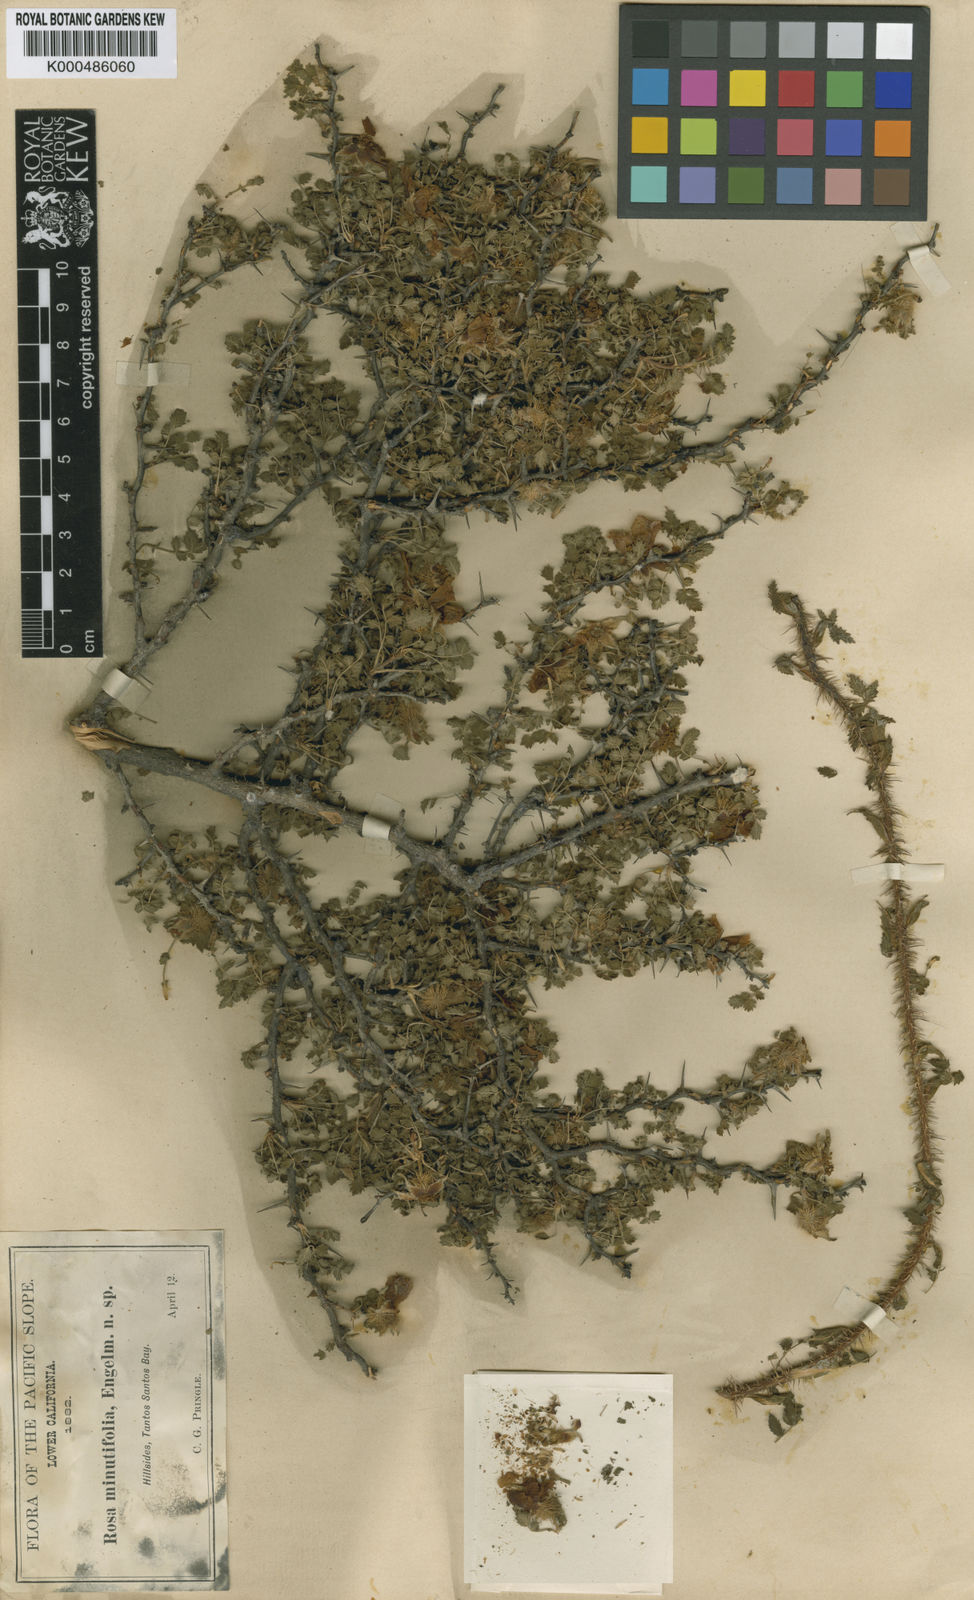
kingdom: Plantae
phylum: Tracheophyta
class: Magnoliopsida
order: Rosales
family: Rosaceae
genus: Rosa
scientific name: Rosa minutifolia
